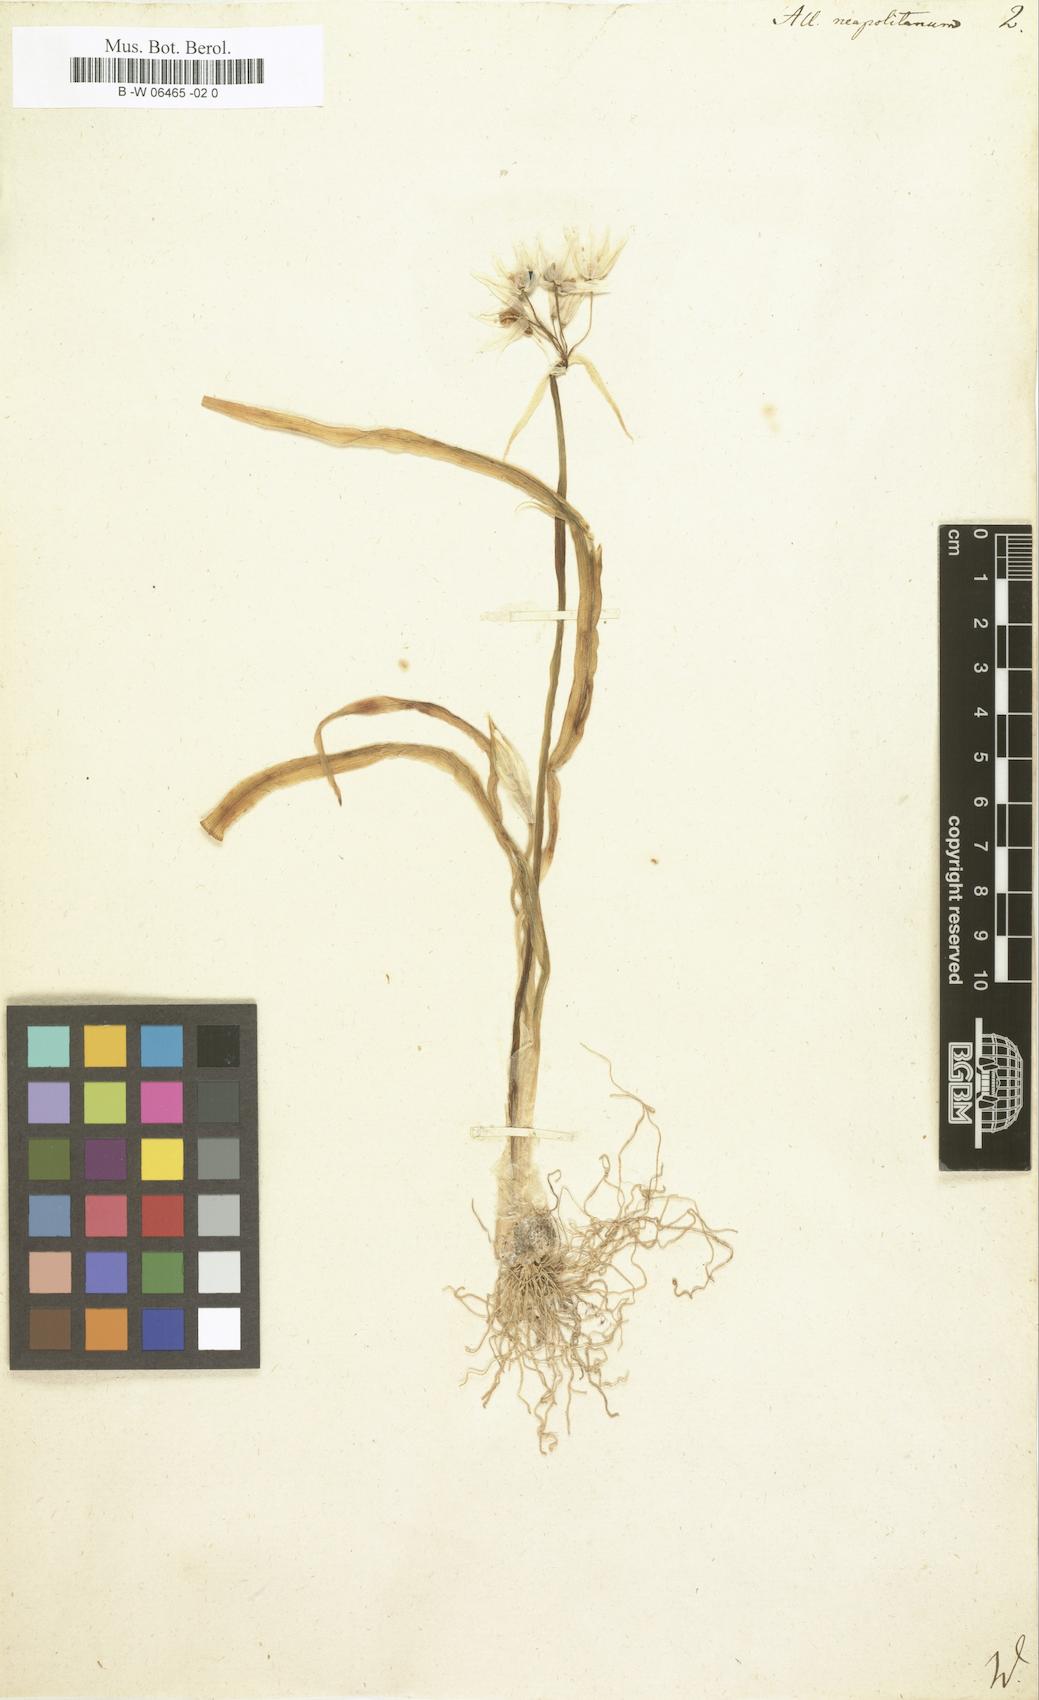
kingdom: Plantae
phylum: Tracheophyta
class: Liliopsida
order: Asparagales
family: Amaryllidaceae
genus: Allium
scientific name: Allium neapolitanum
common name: Neapolitan garlic
